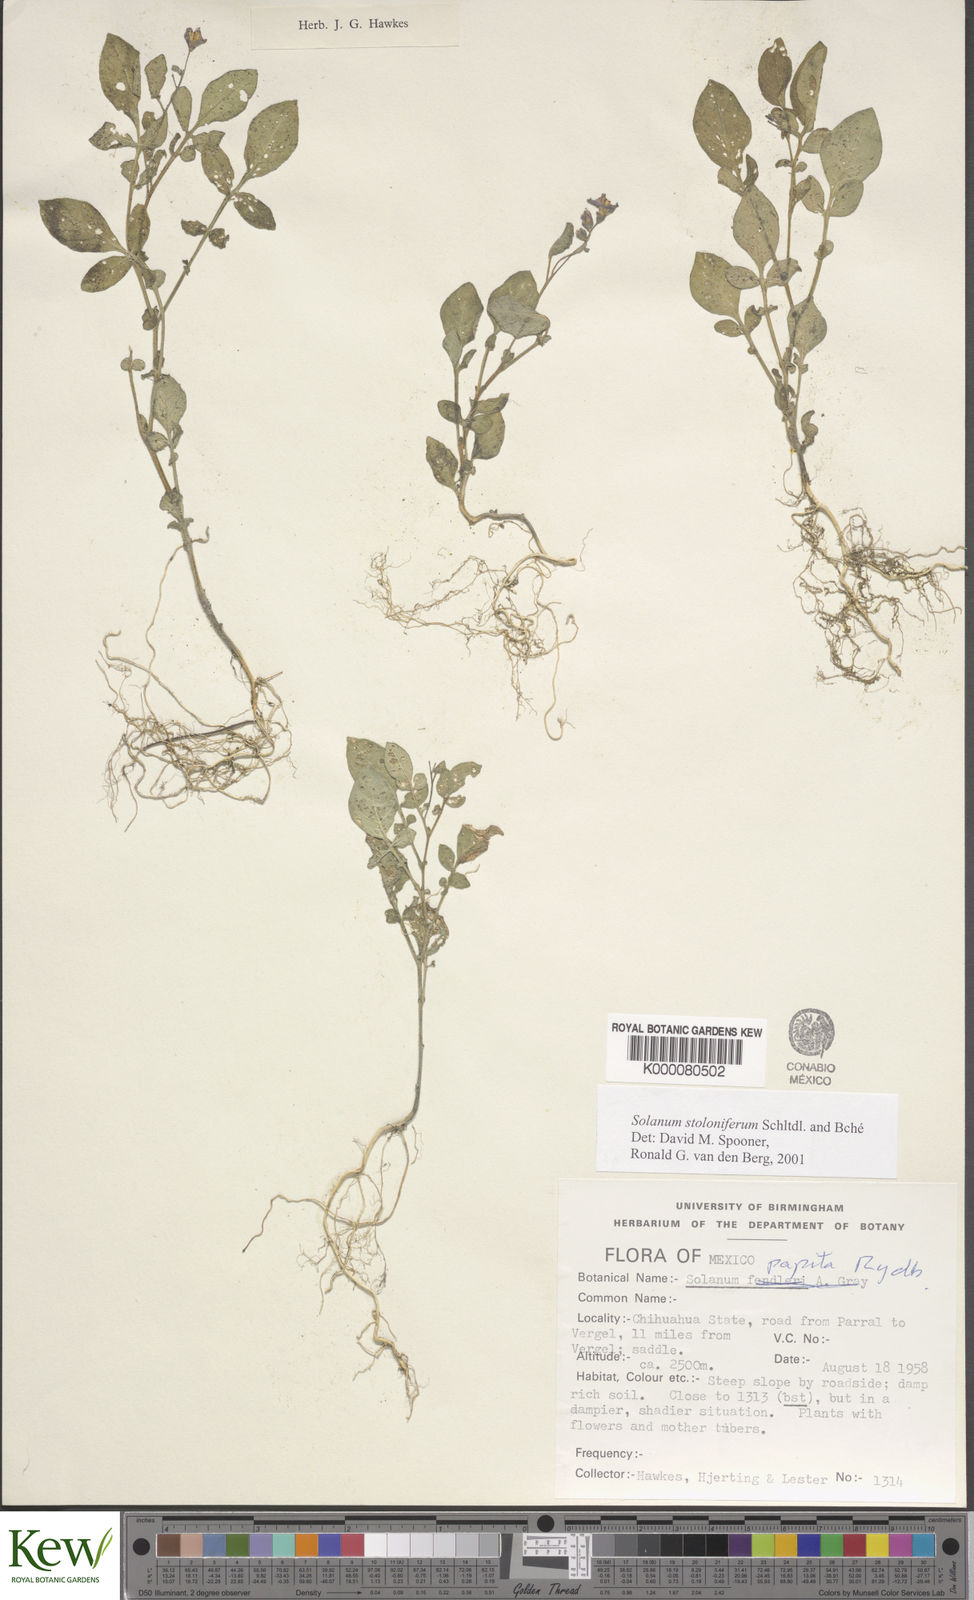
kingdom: Plantae
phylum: Tracheophyta
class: Magnoliopsida
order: Solanales
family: Solanaceae
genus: Solanum
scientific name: Solanum stoloniferum
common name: Fendler's nighshade
